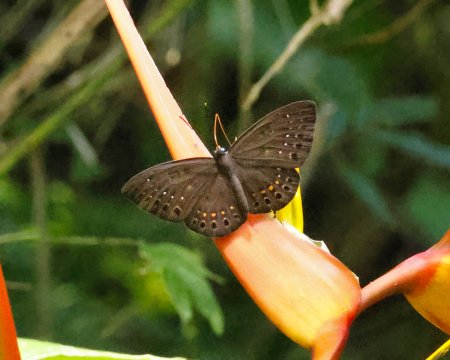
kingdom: Animalia
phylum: Cnidaria
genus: Eurybia
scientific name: Eurybia elvina
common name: Blind Eurybia
